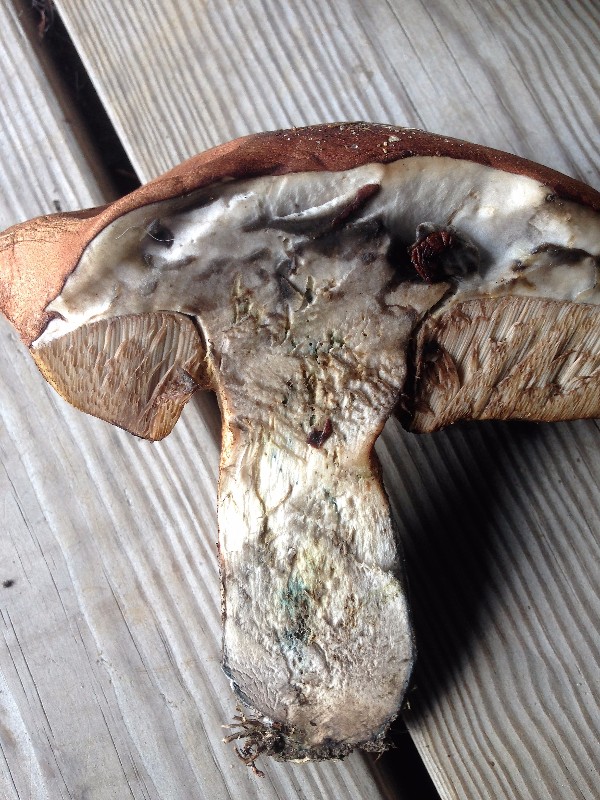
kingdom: Fungi
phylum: Basidiomycota
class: Agaricomycetes
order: Boletales
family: Boletaceae
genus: Leccinum
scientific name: Leccinum vulpinum
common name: fyrre-skælrørhat
